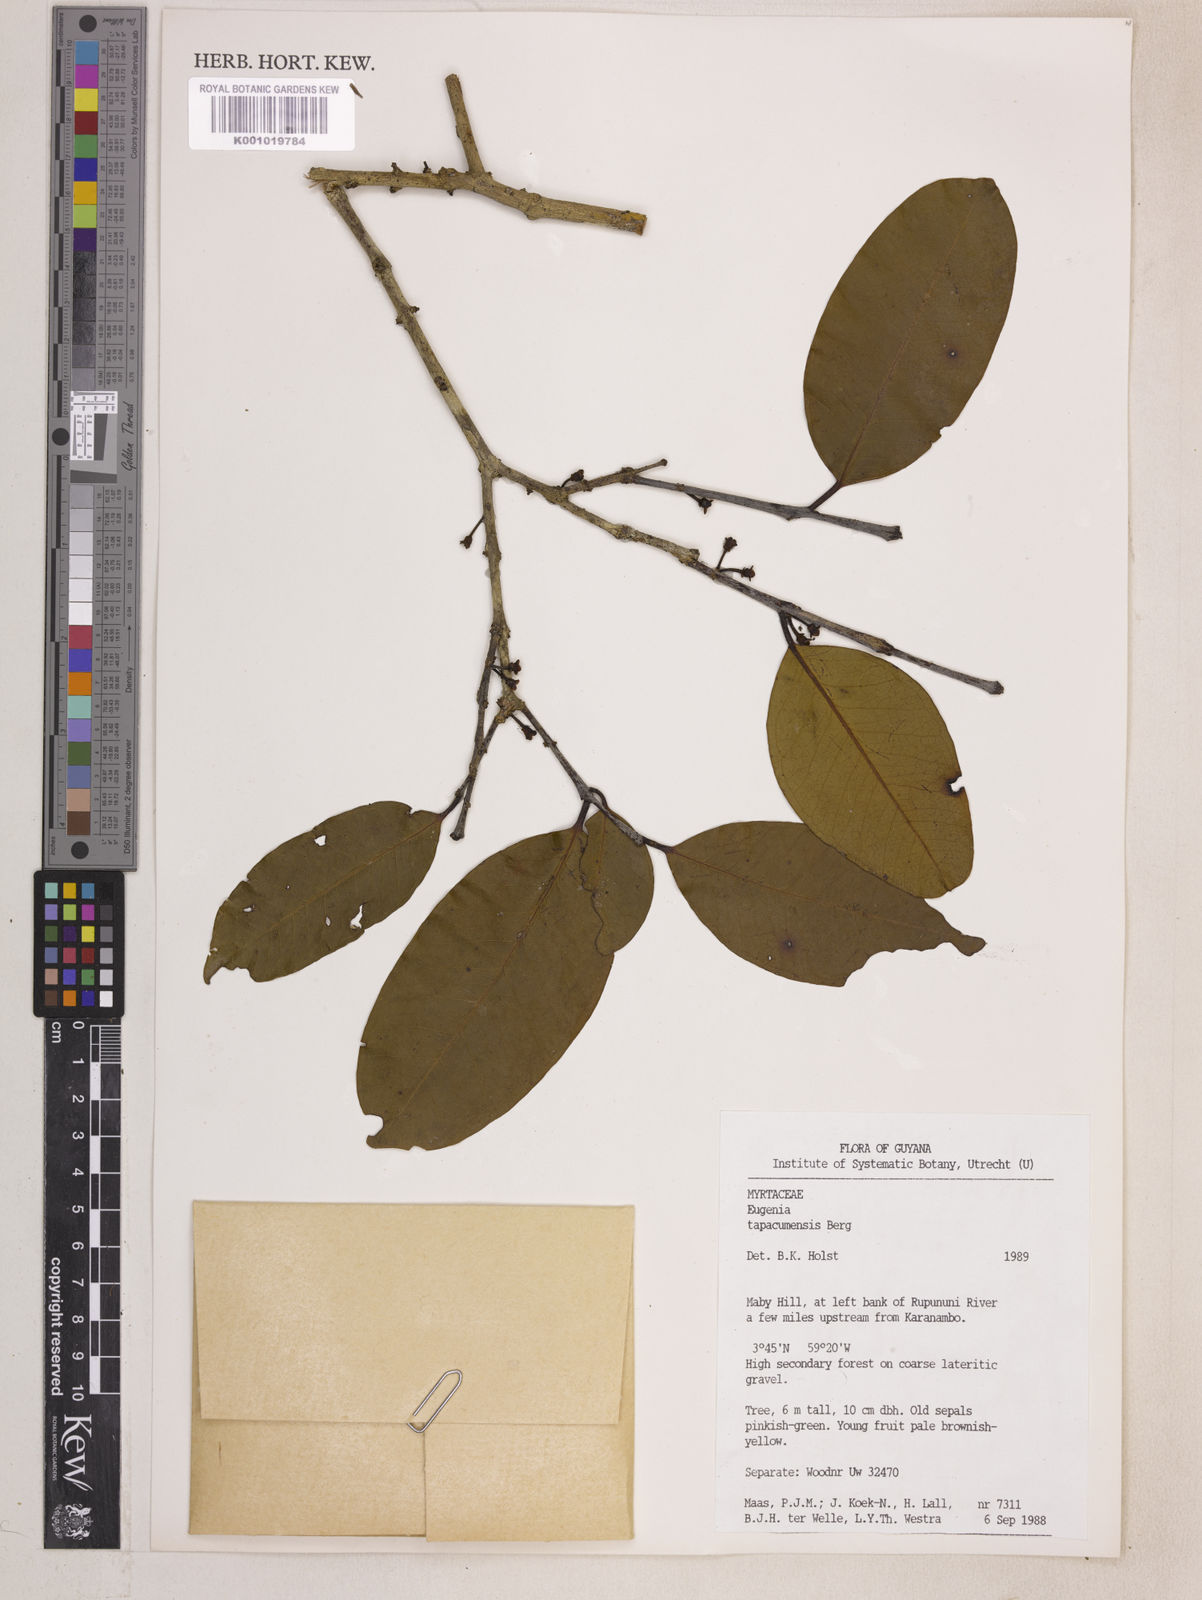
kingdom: Plantae
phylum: Tracheophyta
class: Magnoliopsida
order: Myrtales
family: Myrtaceae
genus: Eugenia
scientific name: Eugenia stictopetala
